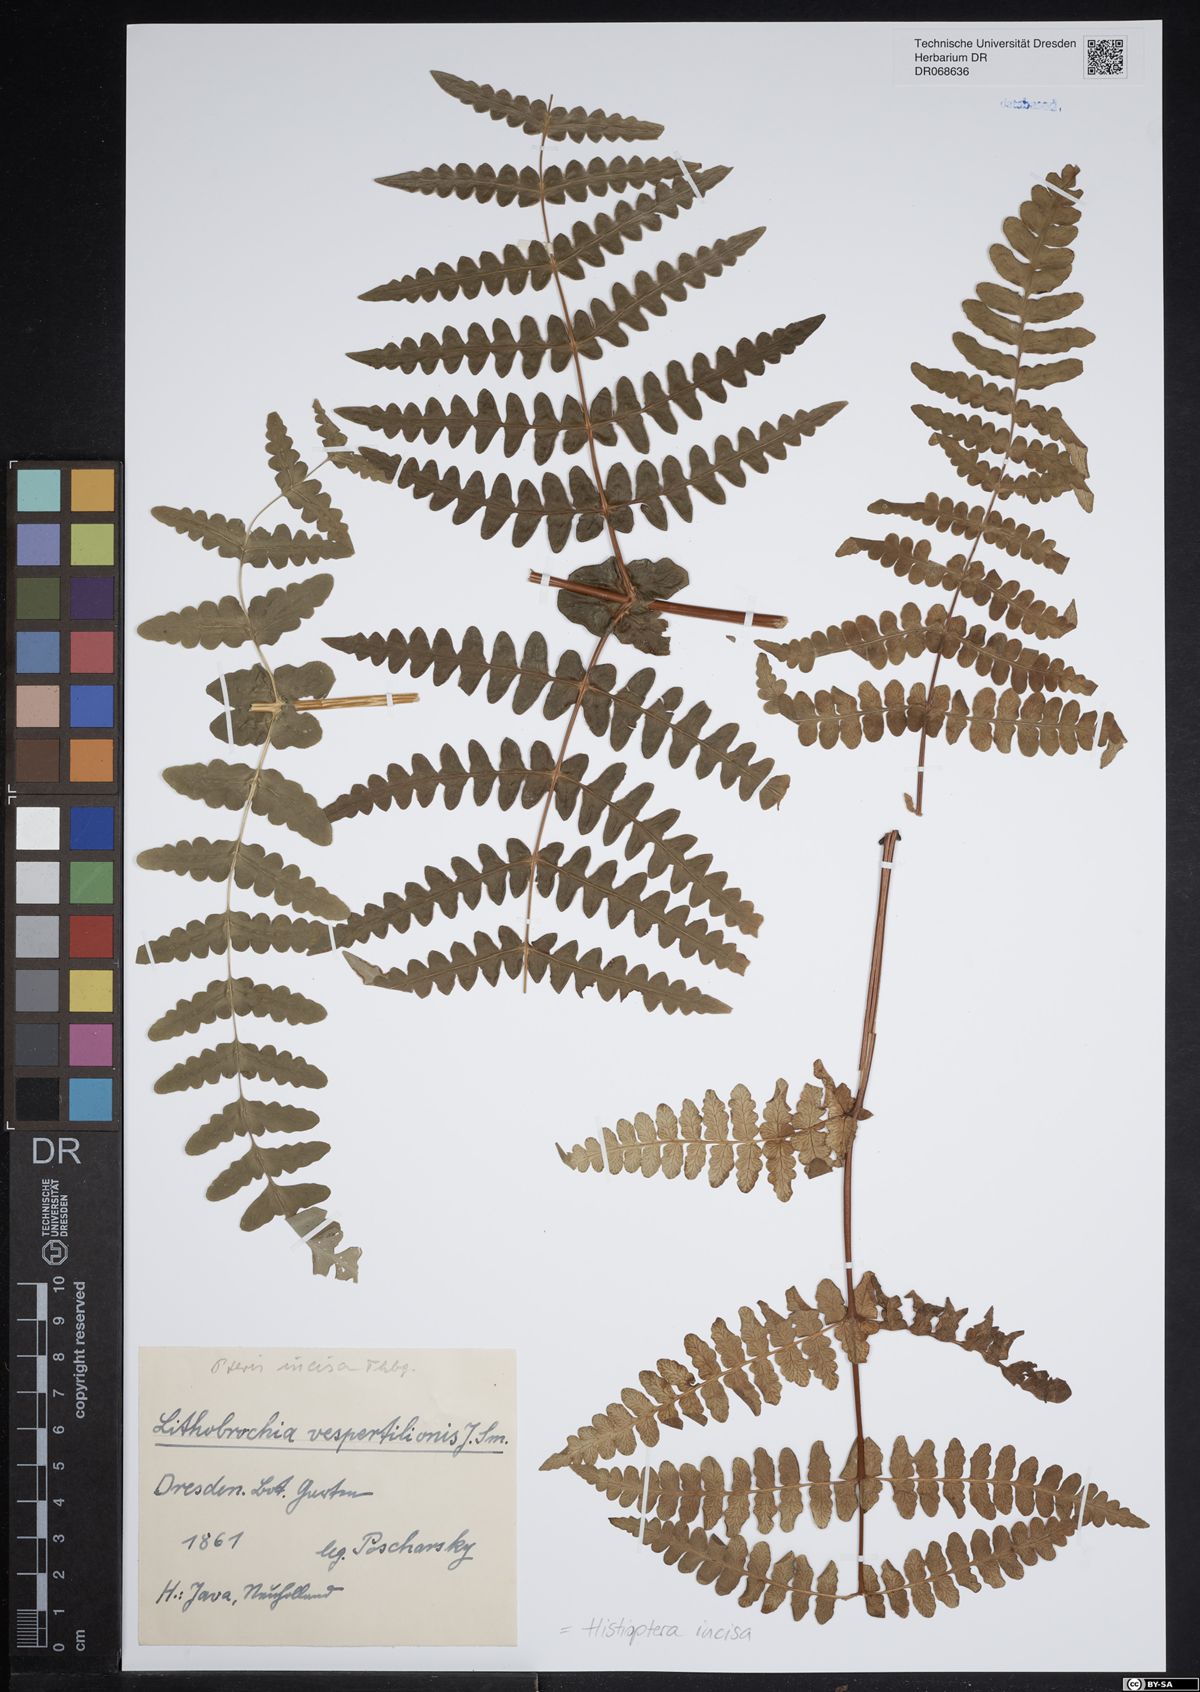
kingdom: Plantae
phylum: Tracheophyta
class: Polypodiopsida
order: Polypodiales
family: Dennstaedtiaceae
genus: Histiopteris
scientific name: Histiopteris incisa
